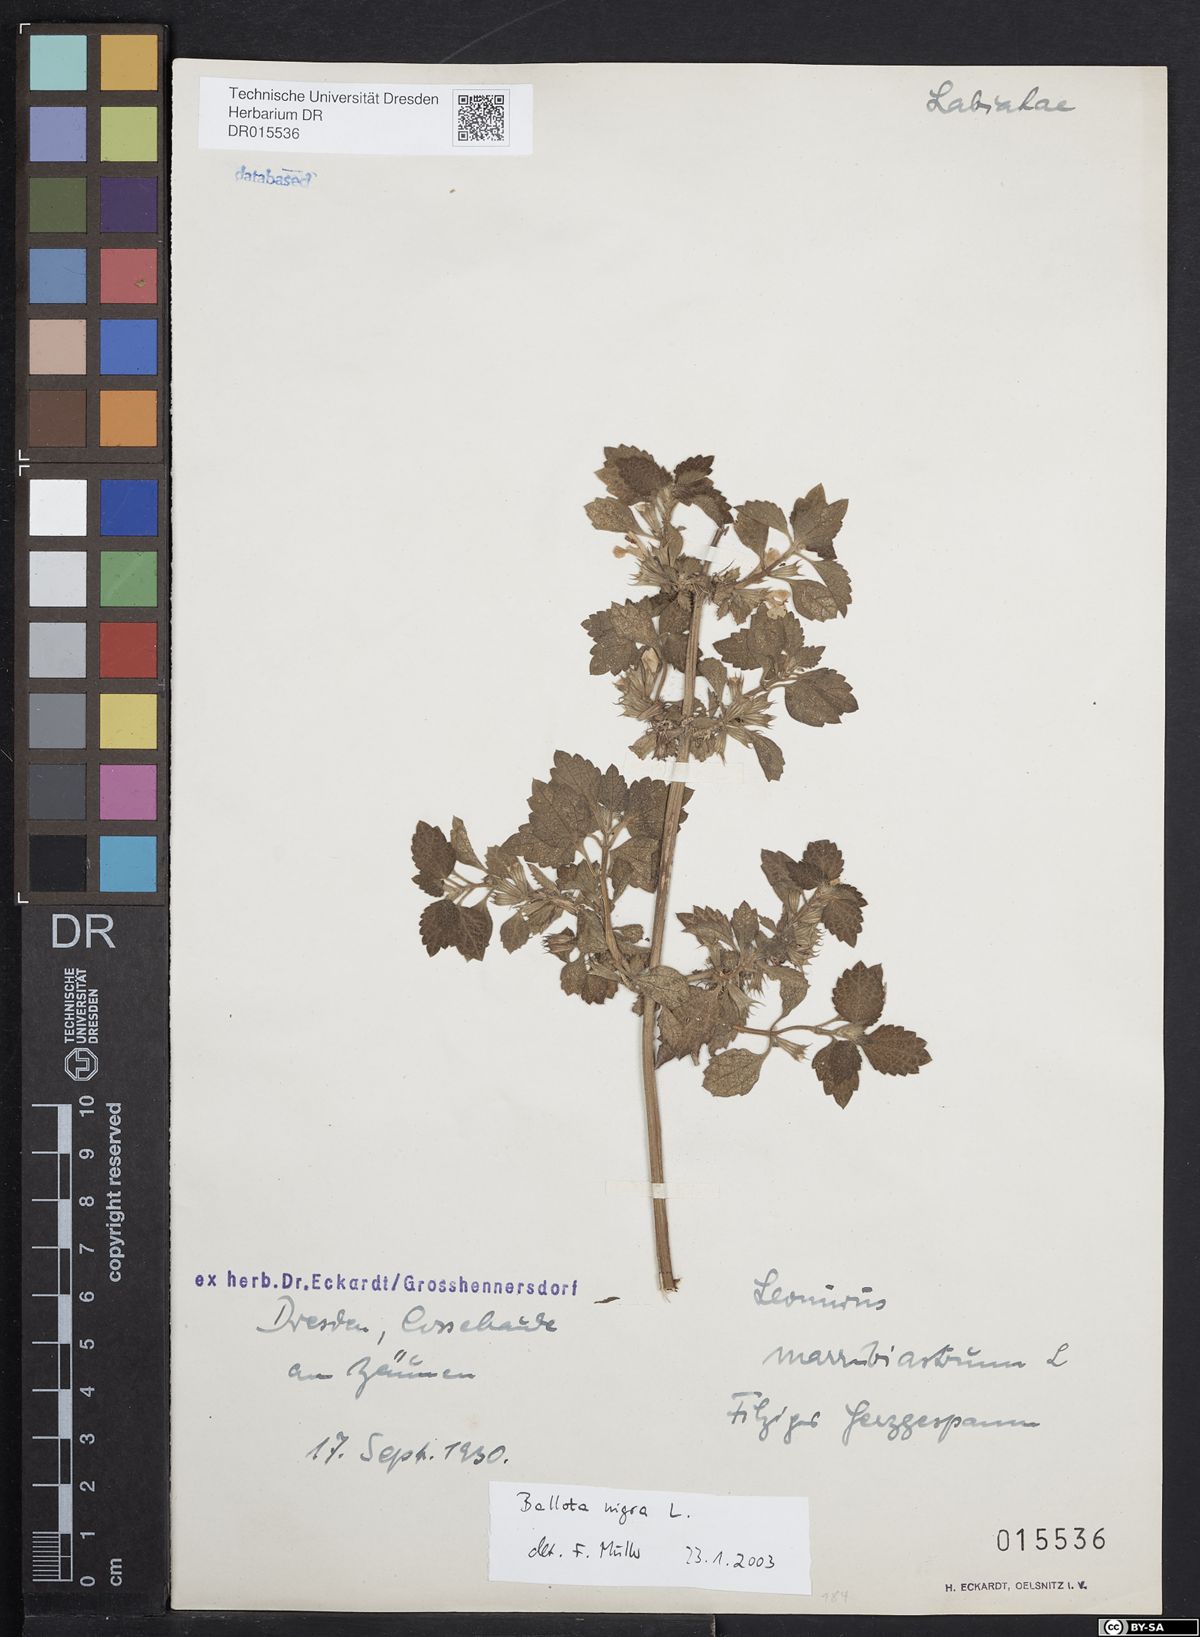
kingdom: Plantae
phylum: Tracheophyta
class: Magnoliopsida
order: Lamiales
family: Lamiaceae
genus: Ballota
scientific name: Ballota nigra
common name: Black horehound
